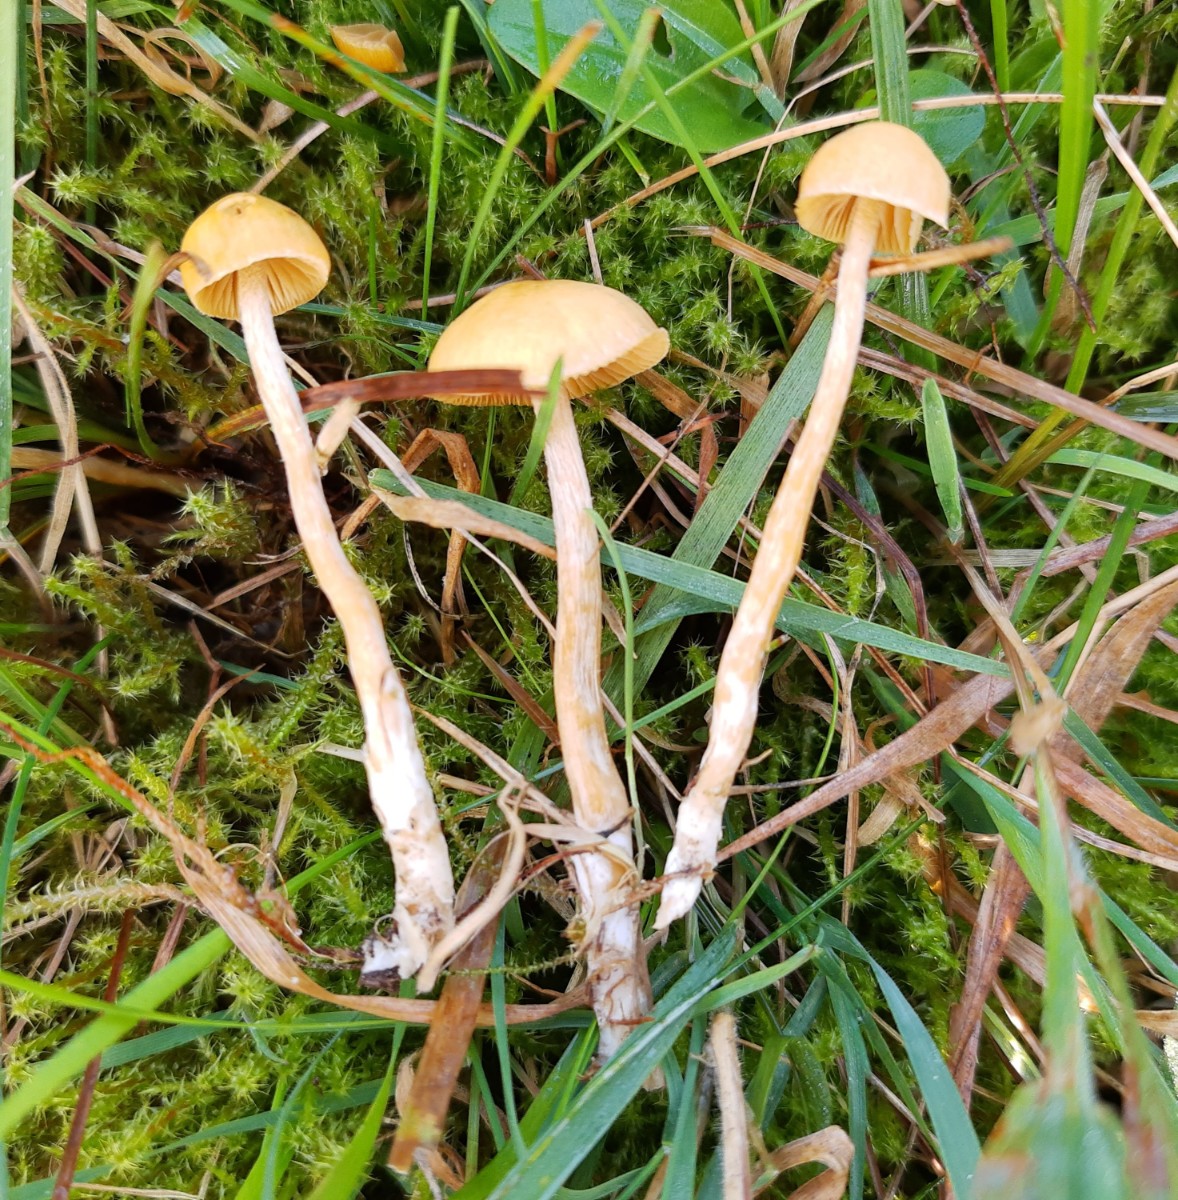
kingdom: Fungi
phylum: Basidiomycota
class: Agaricomycetes
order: Agaricales
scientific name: Agaricales
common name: champignonordenen
